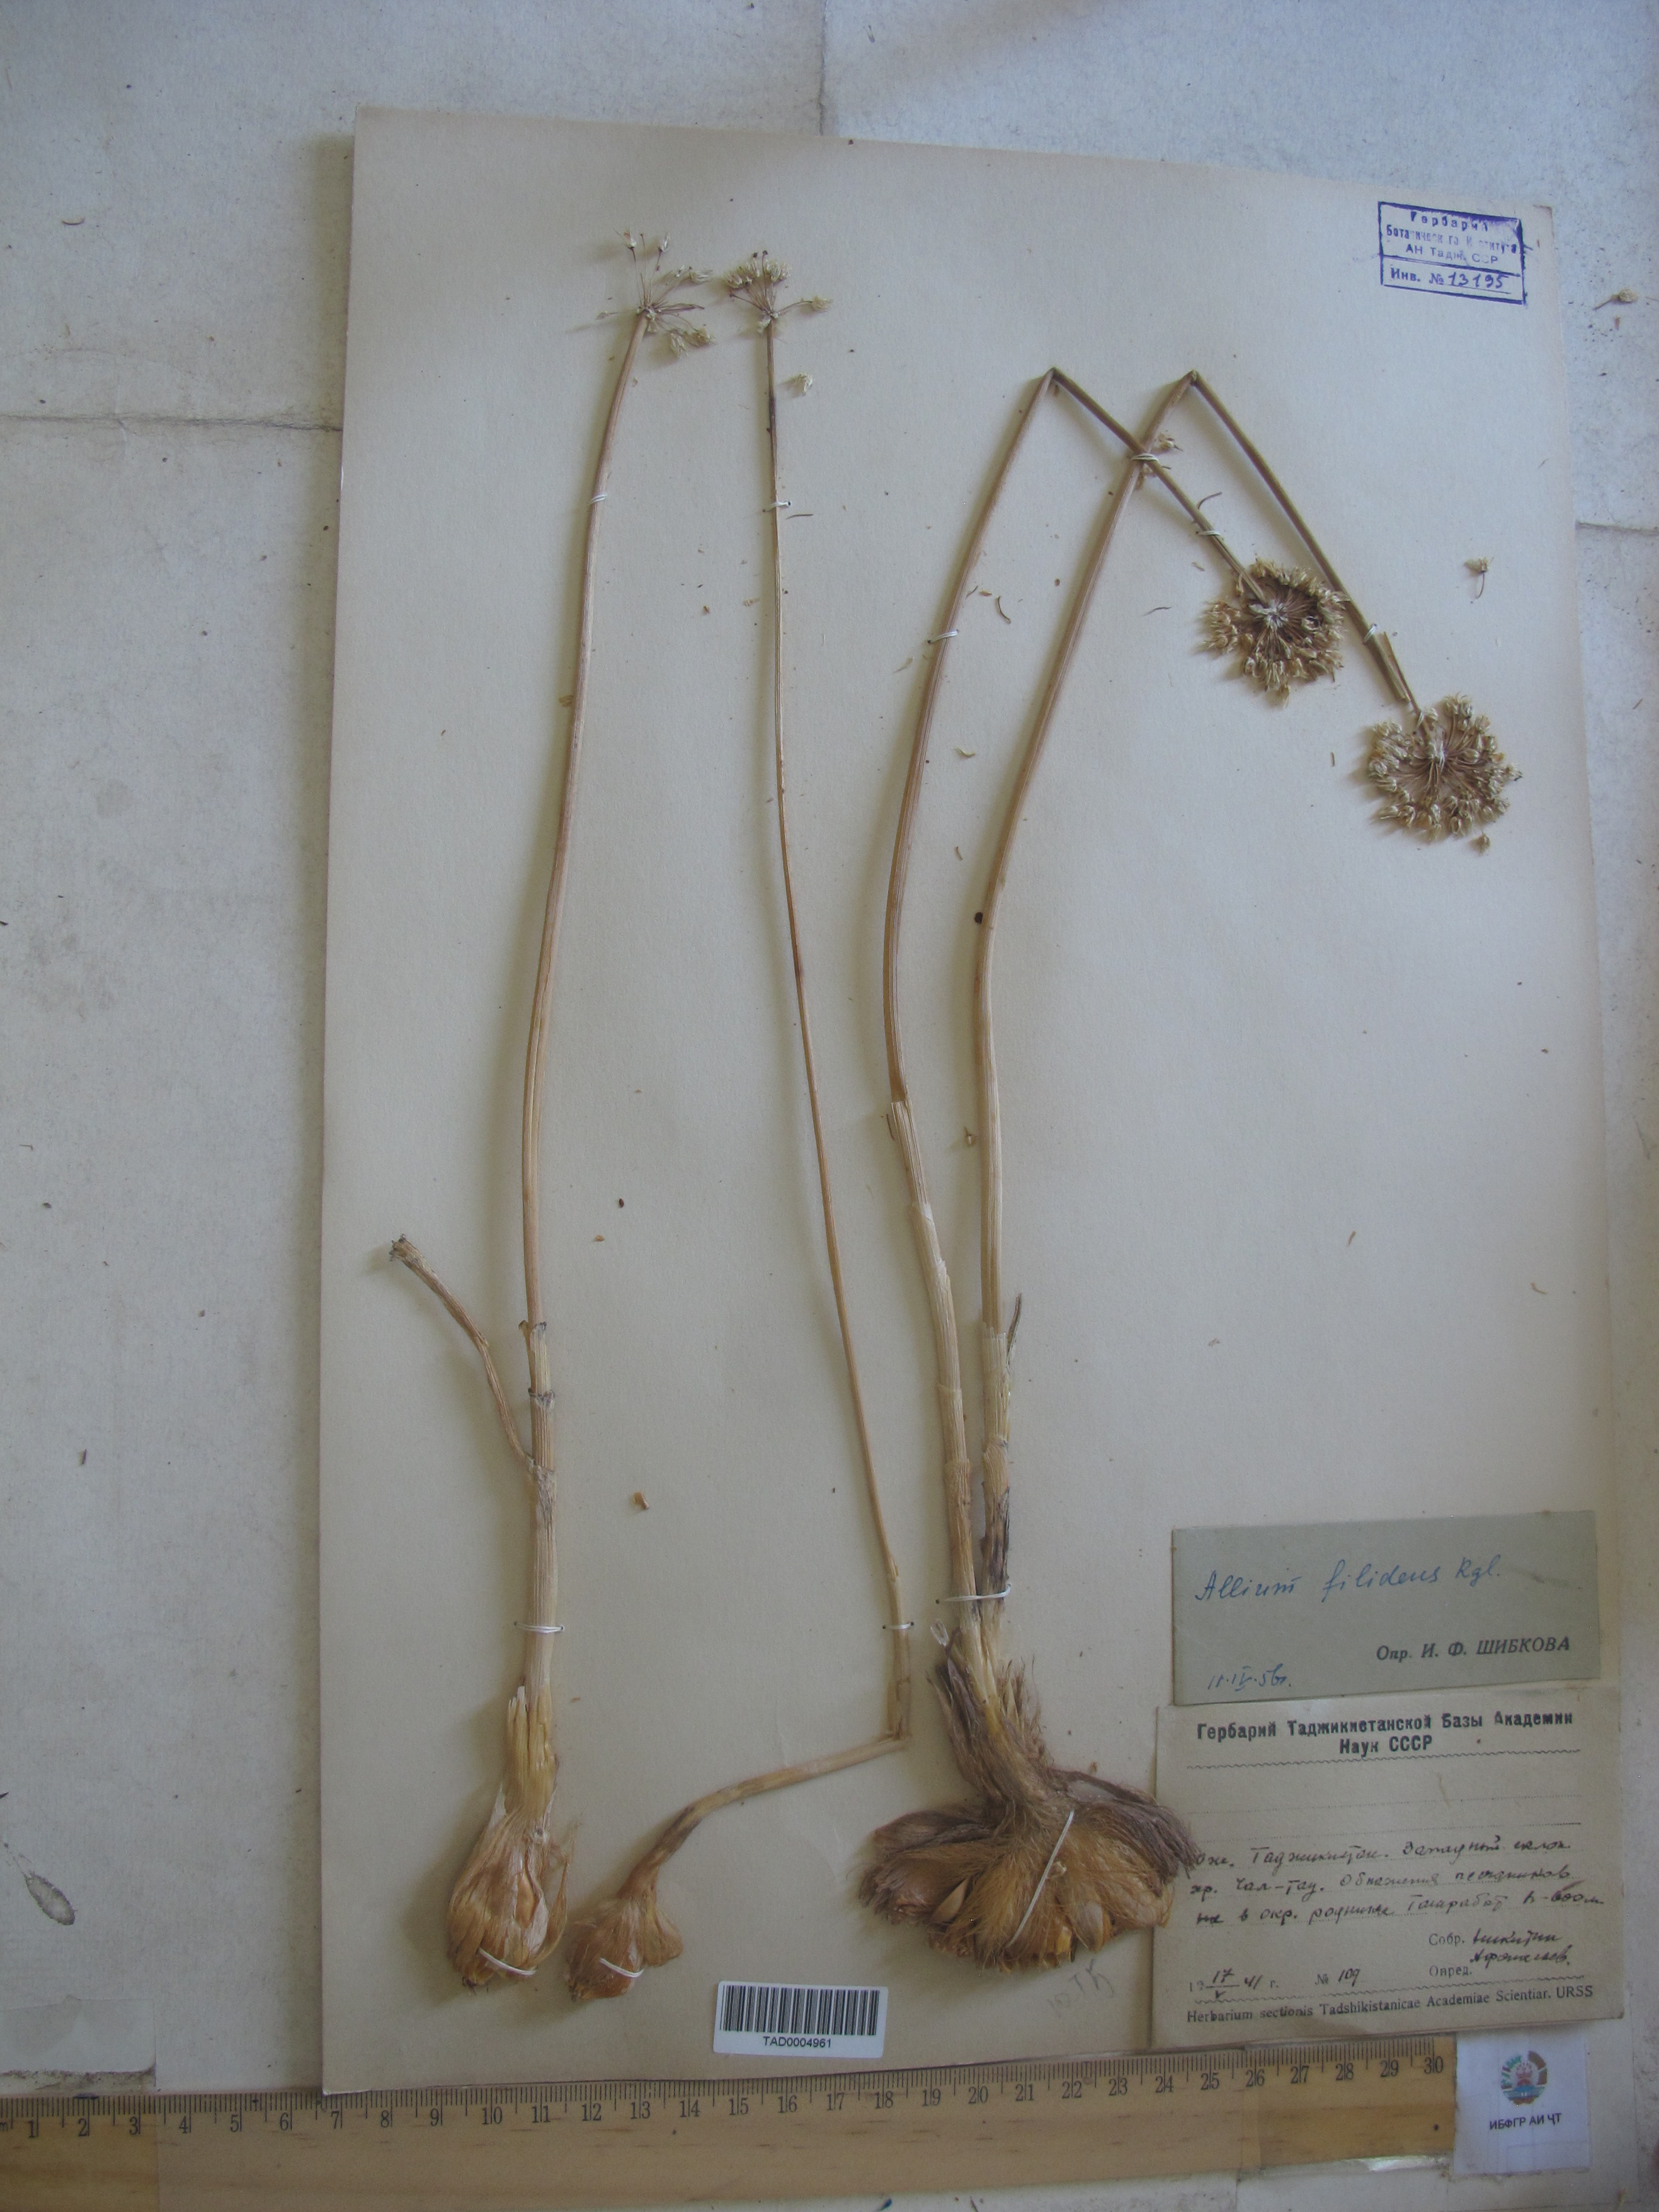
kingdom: Plantae
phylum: Tracheophyta
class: Liliopsida
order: Asparagales
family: Amaryllidaceae
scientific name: Amaryllidaceae
